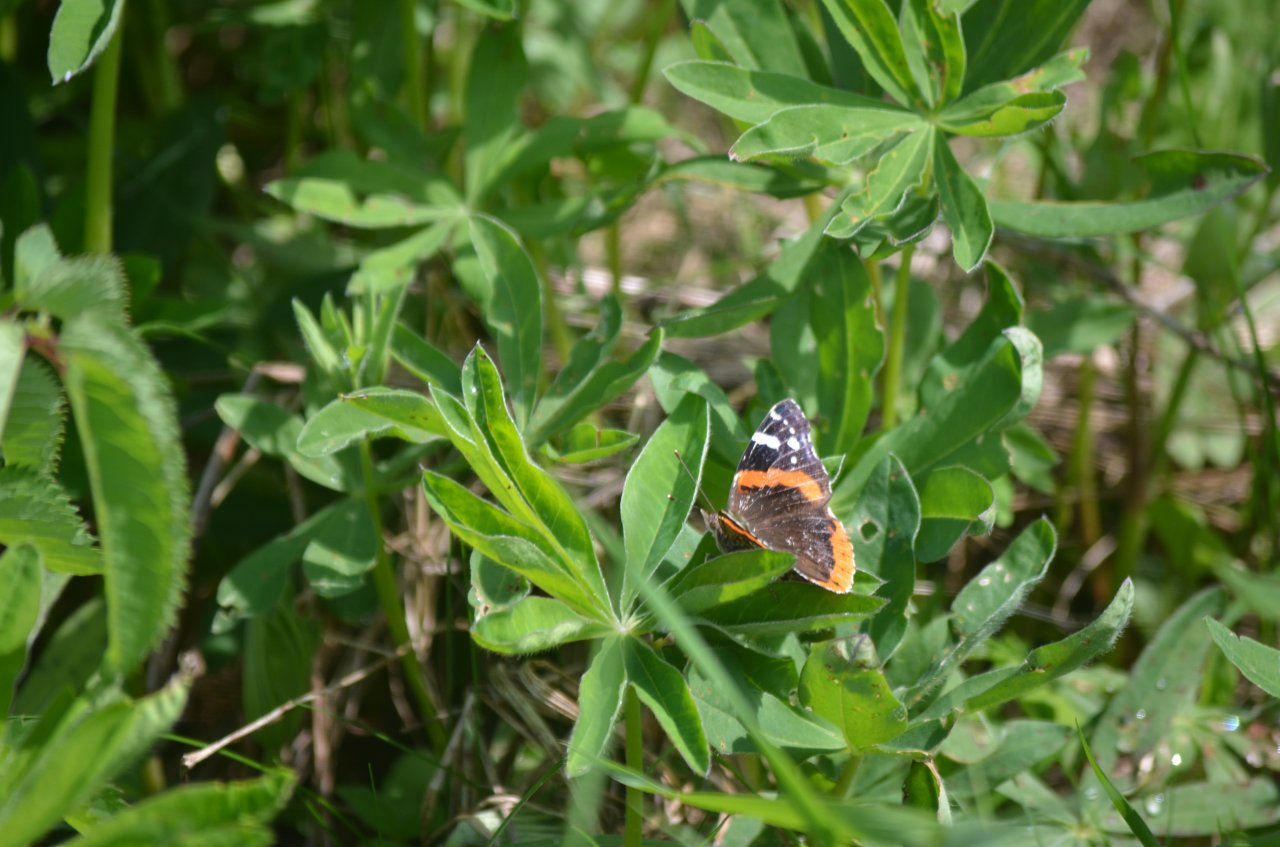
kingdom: Animalia
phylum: Arthropoda
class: Insecta
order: Lepidoptera
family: Nymphalidae
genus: Vanessa
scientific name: Vanessa atalanta
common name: Red Admiral
